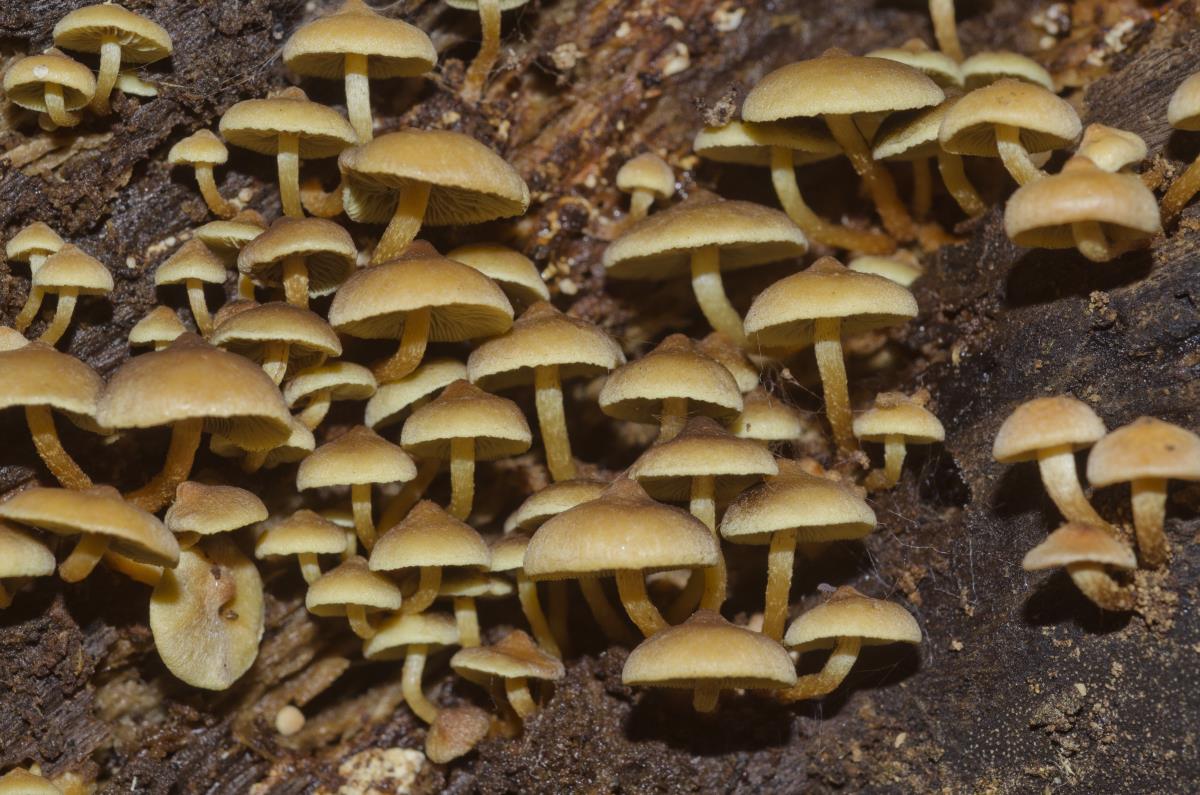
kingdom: Fungi
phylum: Basidiomycota
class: Agaricomycetes
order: Agaricales
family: Strophariaceae
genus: Hypholoma
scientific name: Hypholoma acutum
